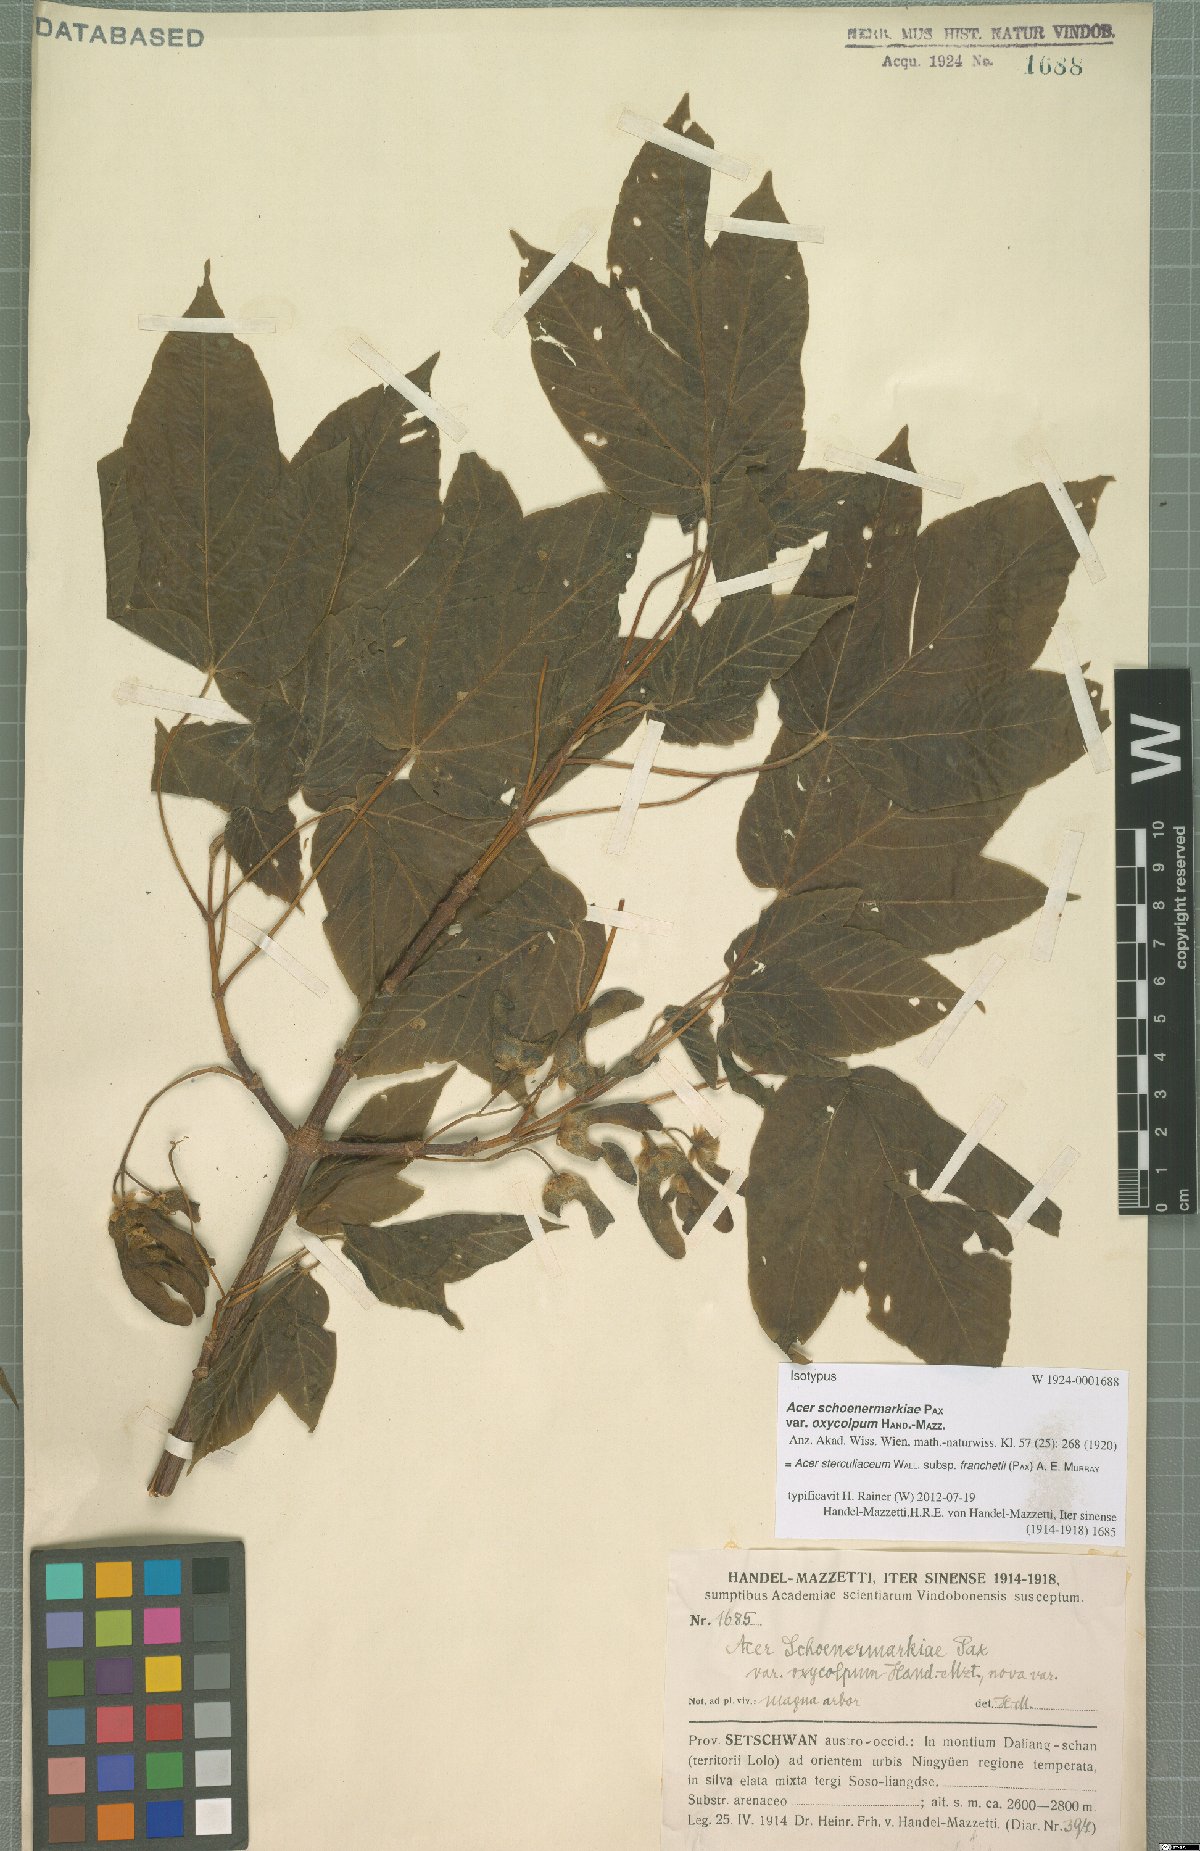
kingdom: Plantae
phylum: Tracheophyta
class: Magnoliopsida
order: Sapindales
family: Sapindaceae
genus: Acer
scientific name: Acer sterculiaceum
